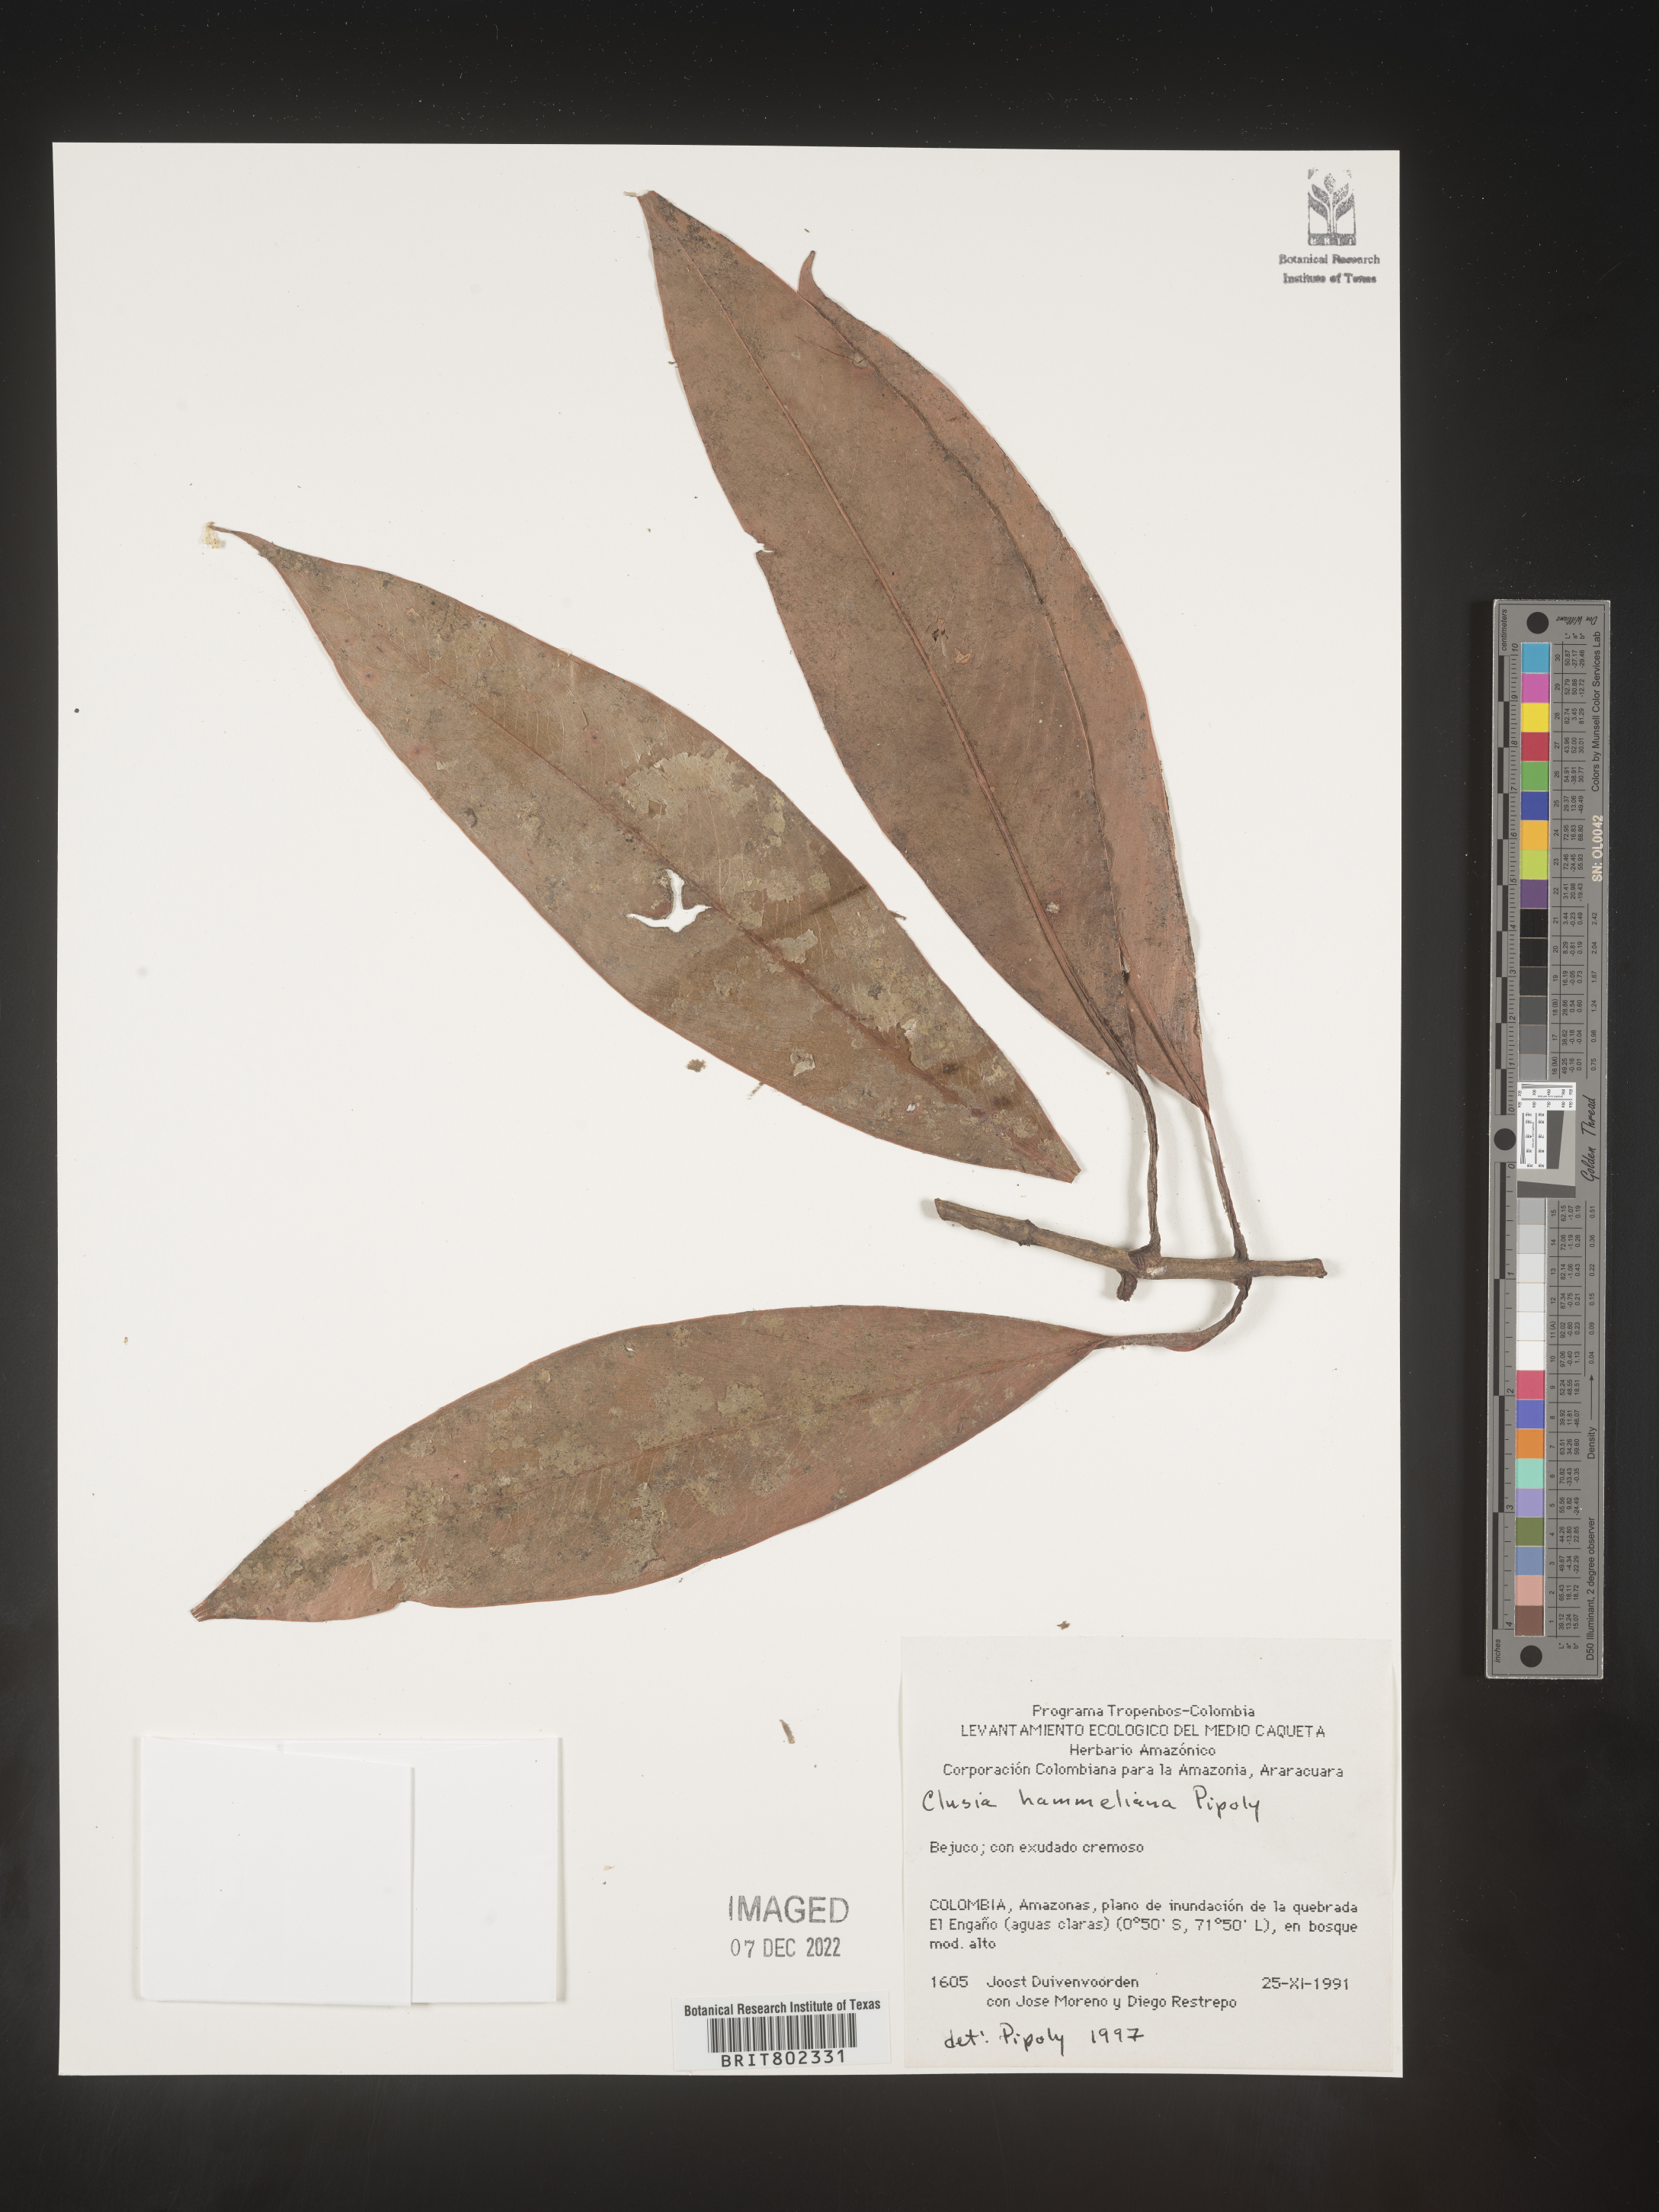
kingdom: Plantae
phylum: Tracheophyta
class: Magnoliopsida
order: Malpighiales
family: Clusiaceae
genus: Clusia
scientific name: Clusia hammeliana
